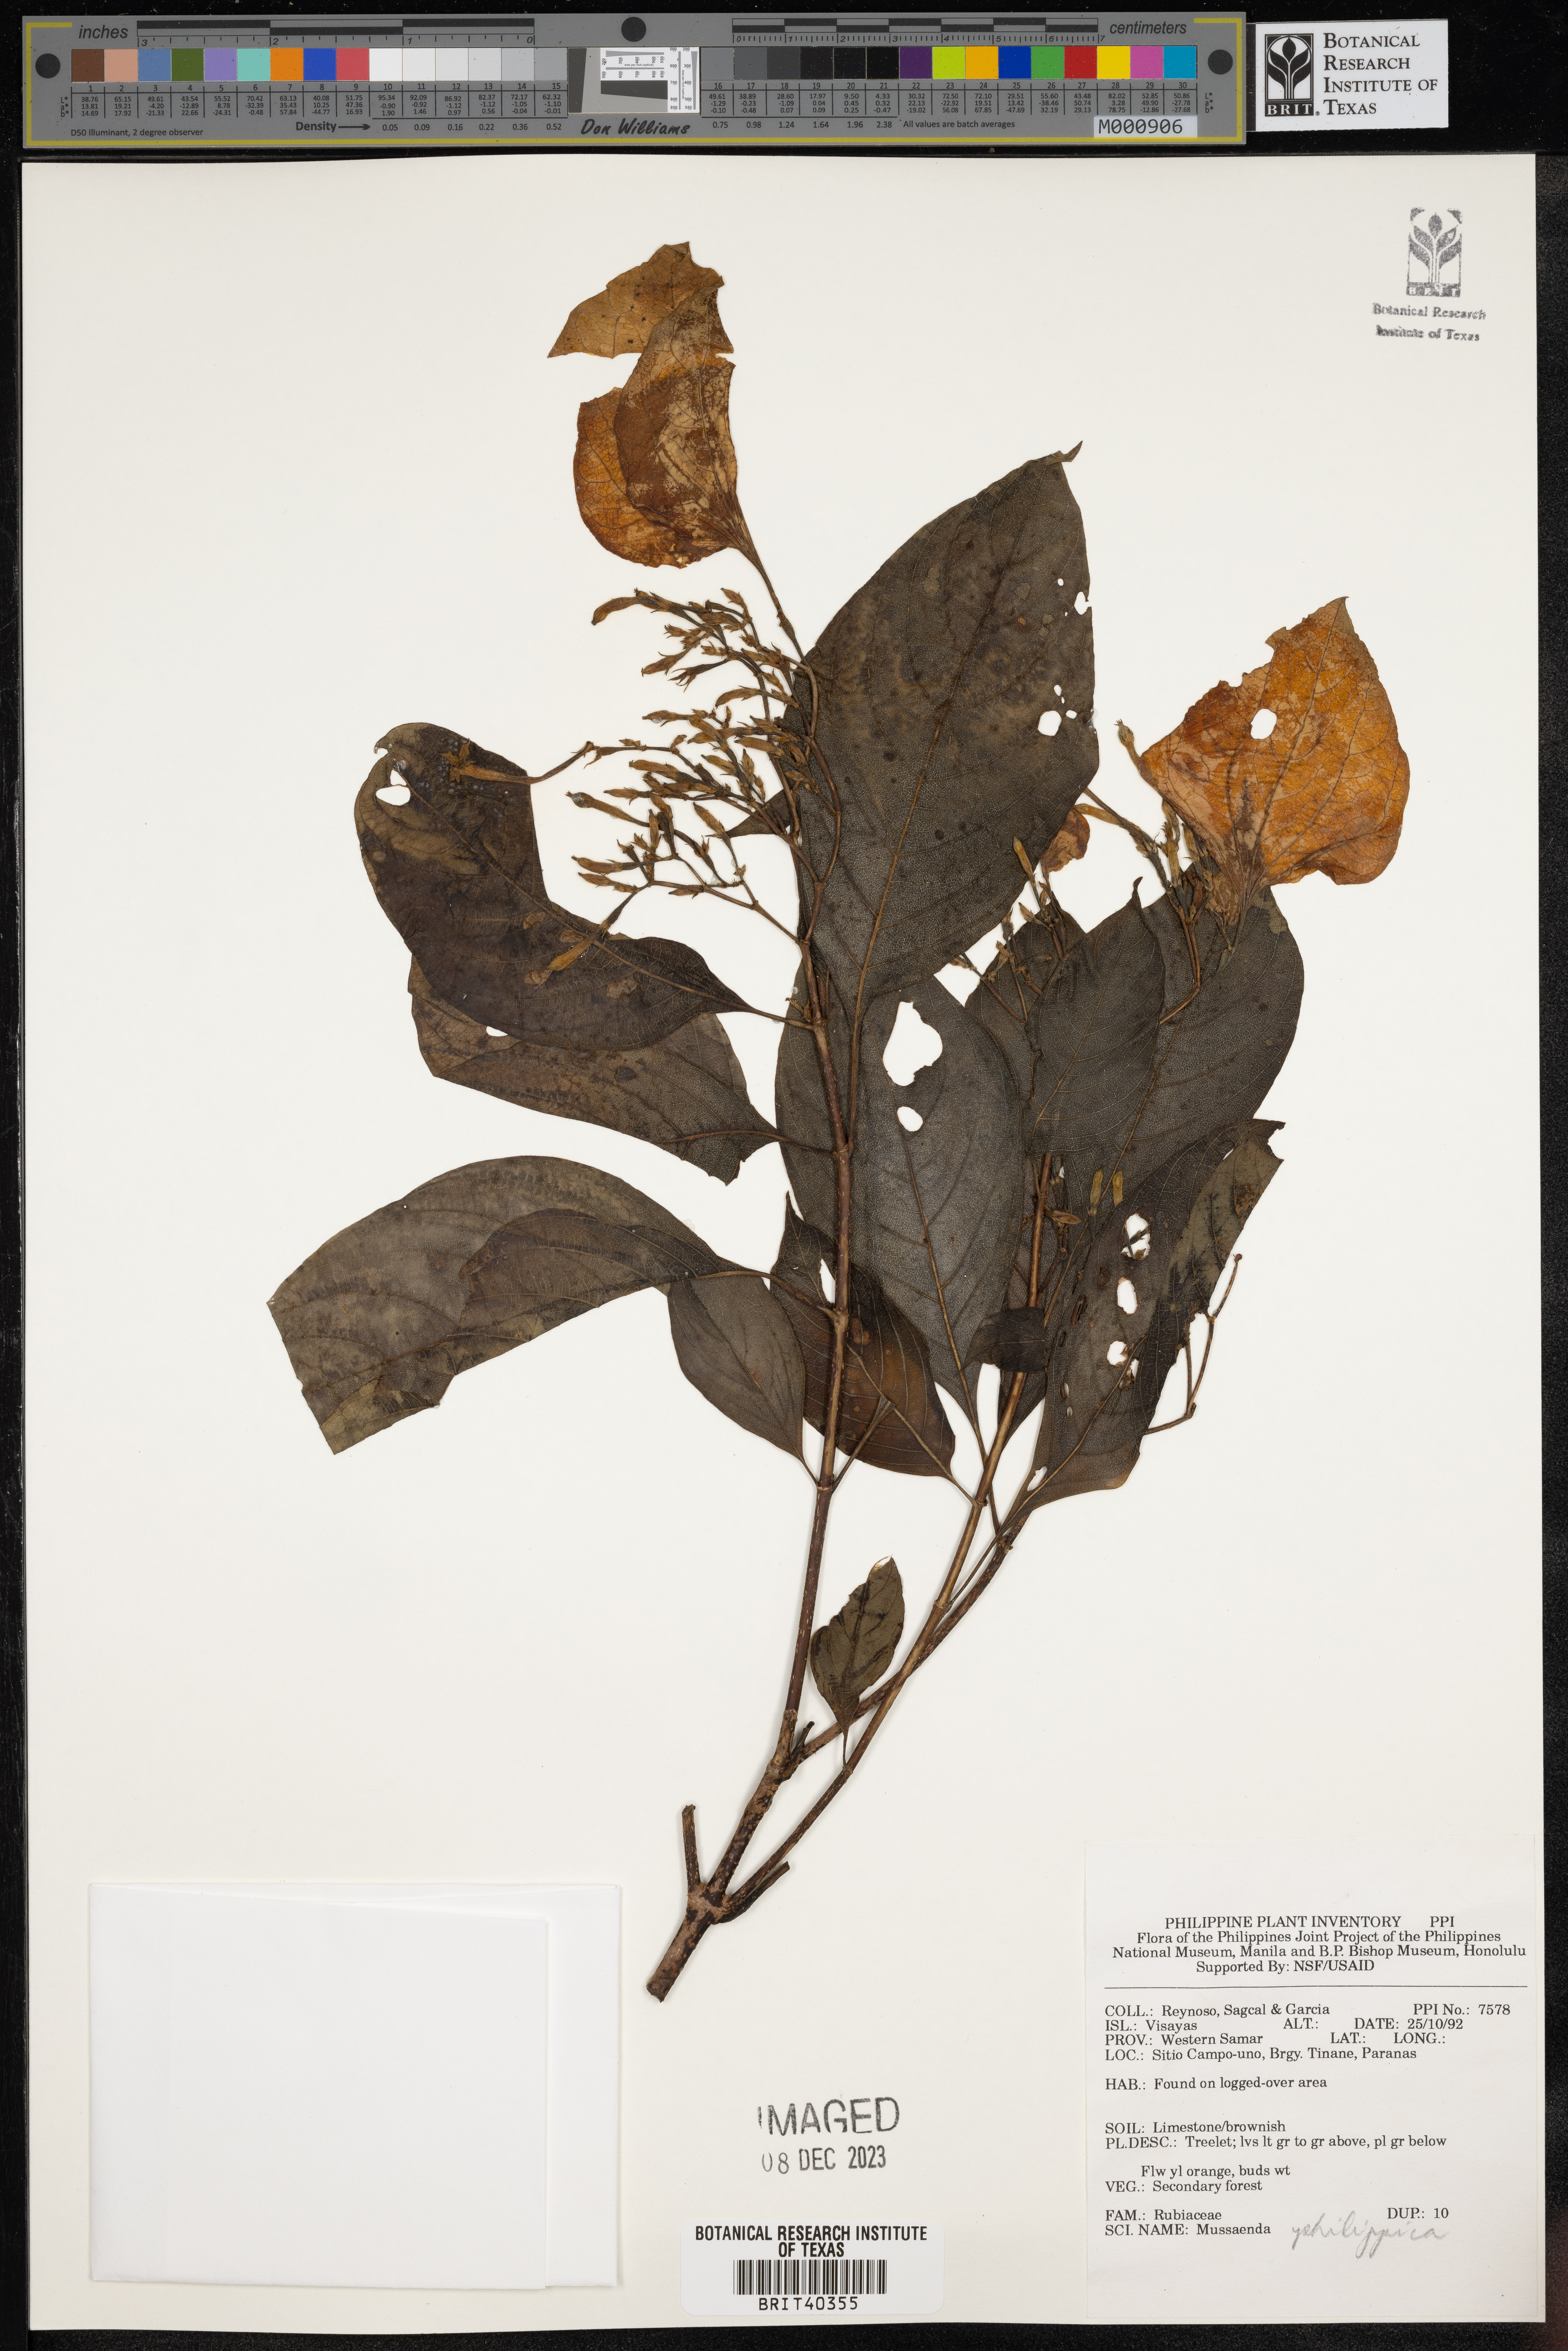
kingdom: Plantae
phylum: Tracheophyta
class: Magnoliopsida
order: Gentianales
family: Rubiaceae
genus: Mussaenda
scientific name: Mussaenda philippica
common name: Philippine mussaenda
